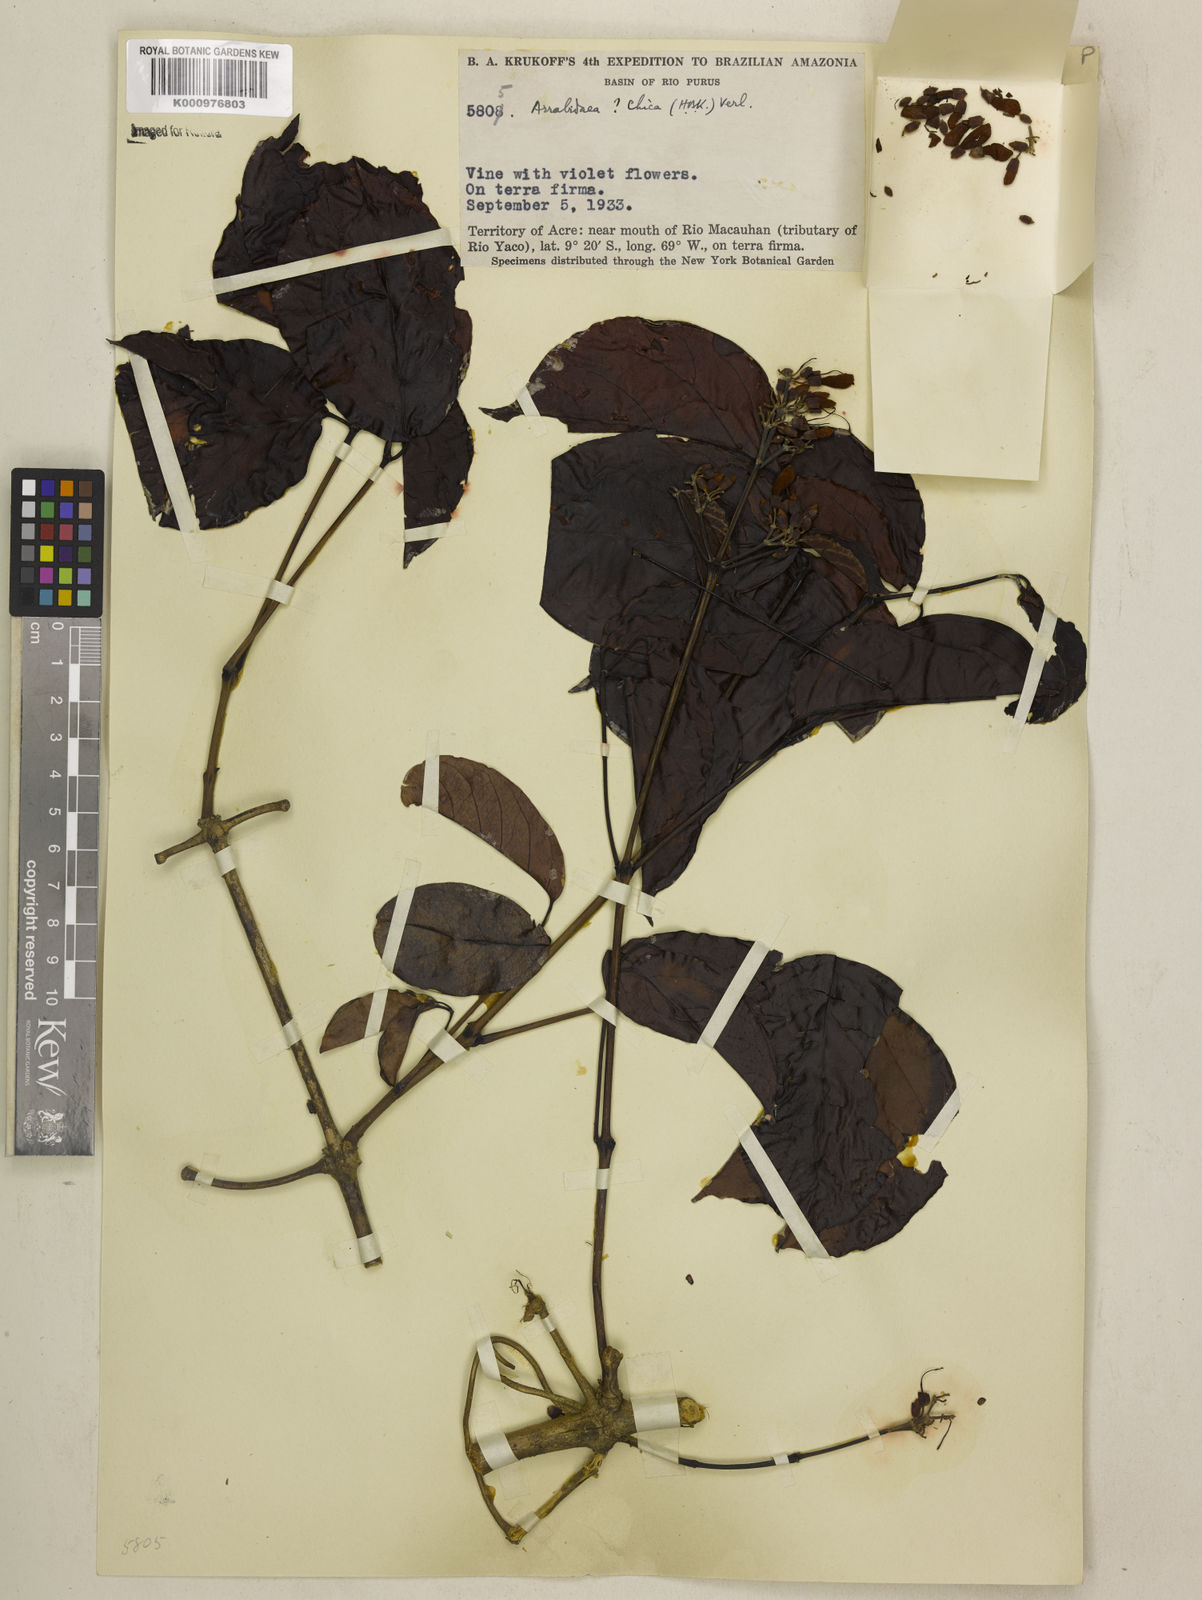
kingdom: Plantae
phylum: Tracheophyta
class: Magnoliopsida
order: Lamiales
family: Bignoniaceae
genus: Fridericia
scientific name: Fridericia chica
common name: Cricketvine
